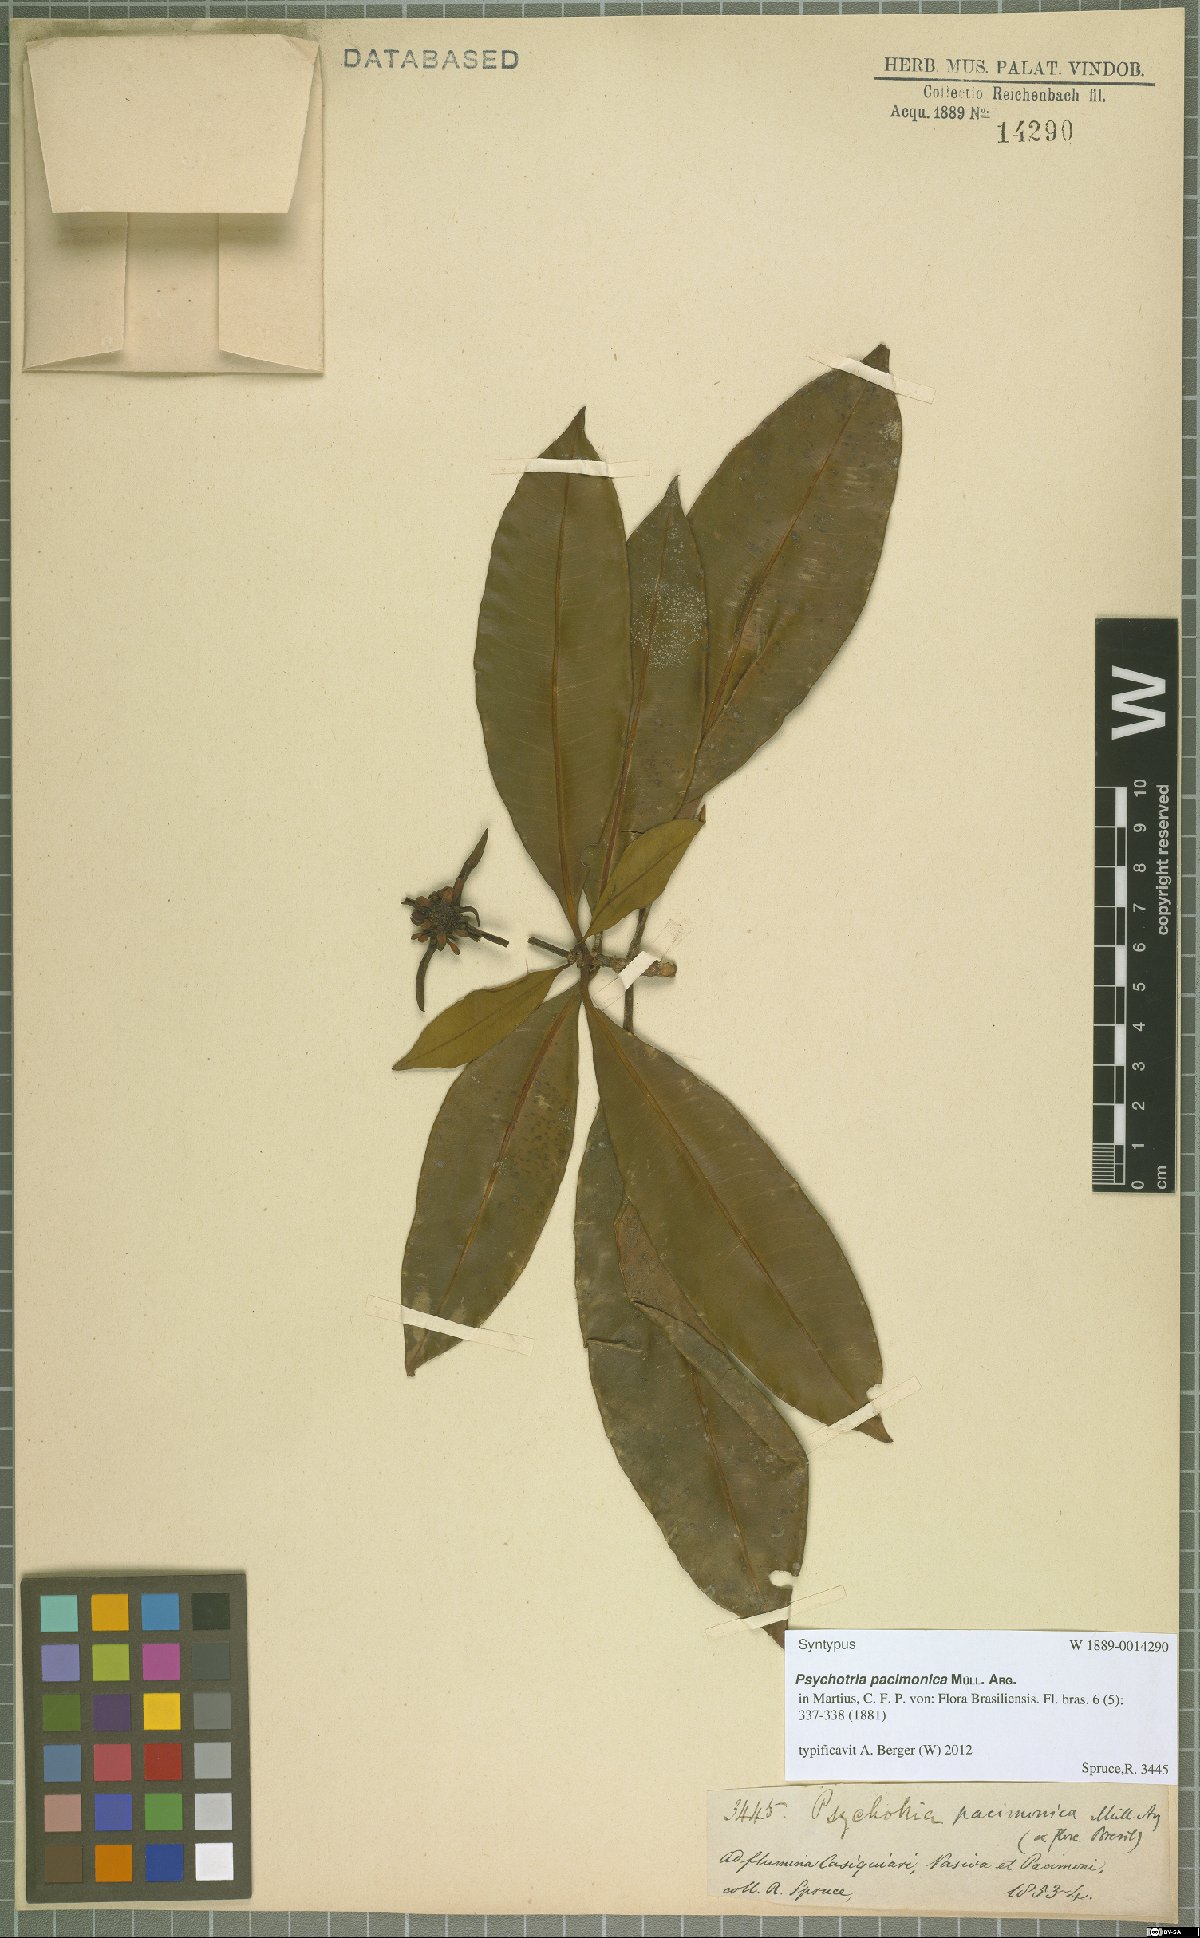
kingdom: Plantae
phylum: Tracheophyta
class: Magnoliopsida
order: Gentianales
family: Rubiaceae
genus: Carapichea
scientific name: Carapichea pacimonica
